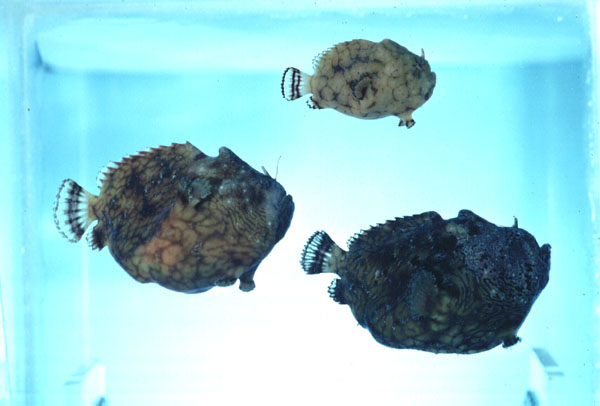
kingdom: Animalia
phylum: Chordata
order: Lophiiformes
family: Antennariidae
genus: Antennatus
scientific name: Antennatus tuberosus
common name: Reticulated frogfish
